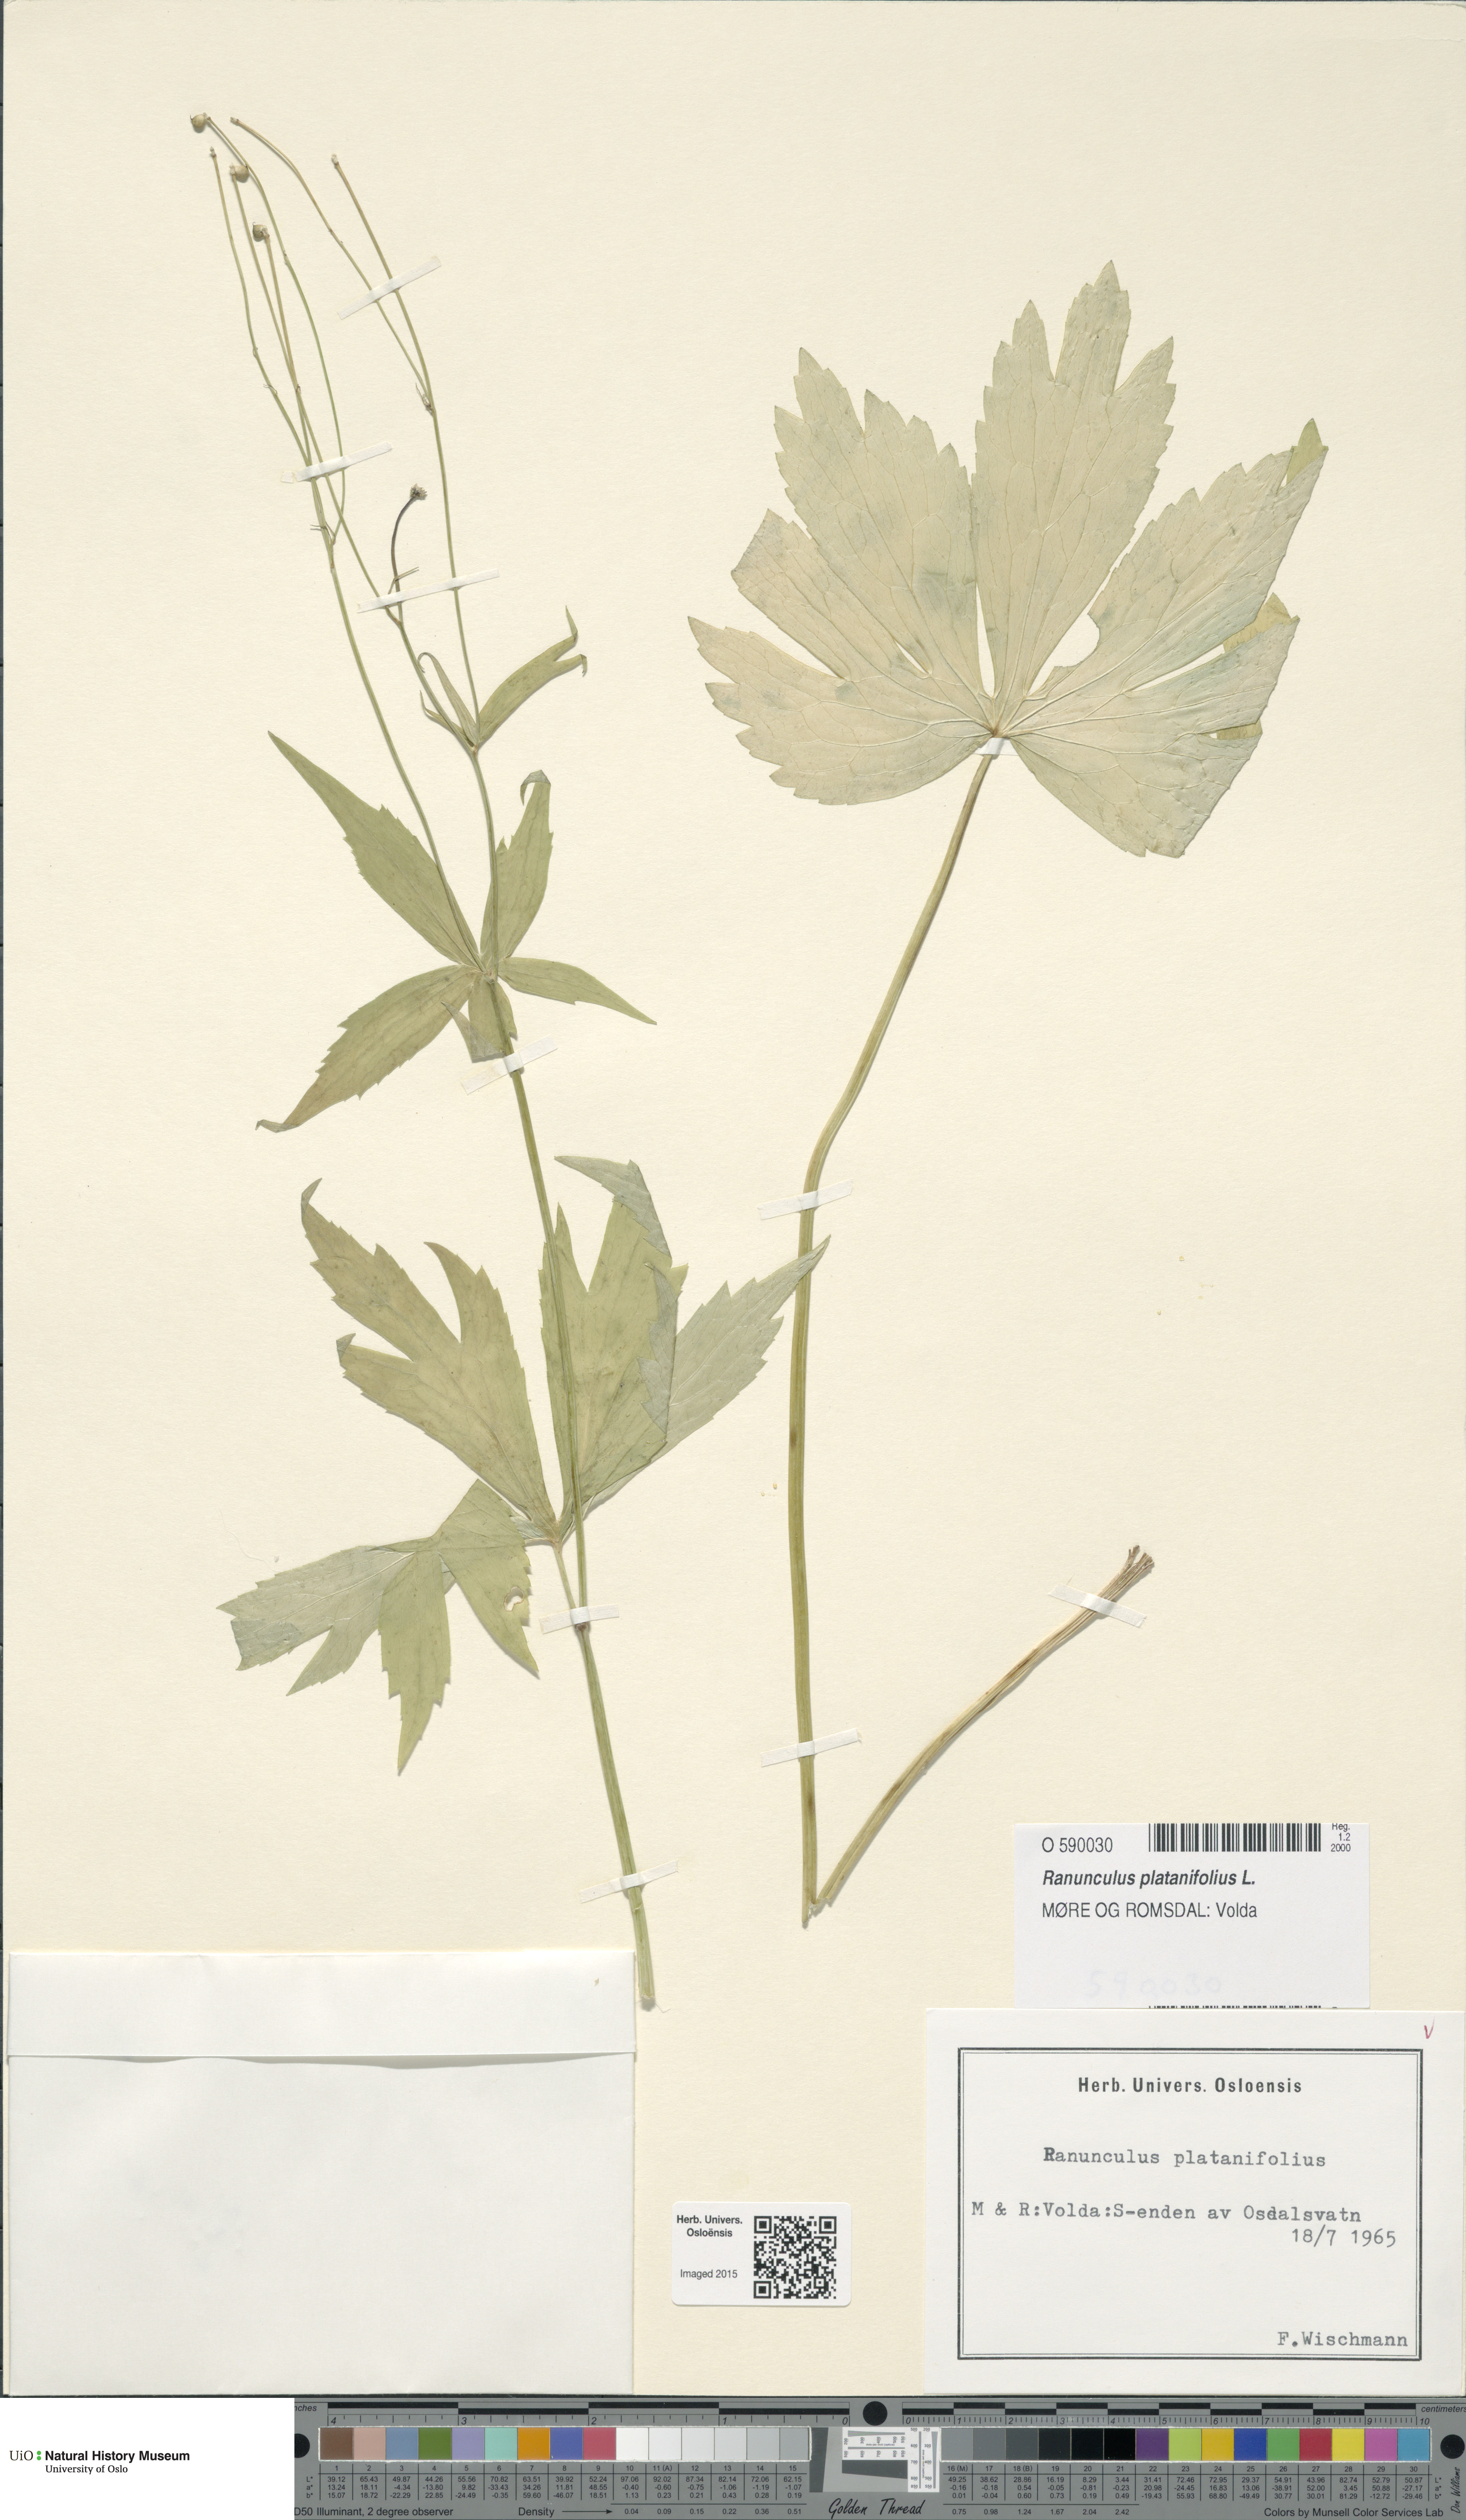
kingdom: Plantae
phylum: Tracheophyta
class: Magnoliopsida
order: Ranunculales
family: Ranunculaceae
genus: Ranunculus
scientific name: Ranunculus platanifolius
